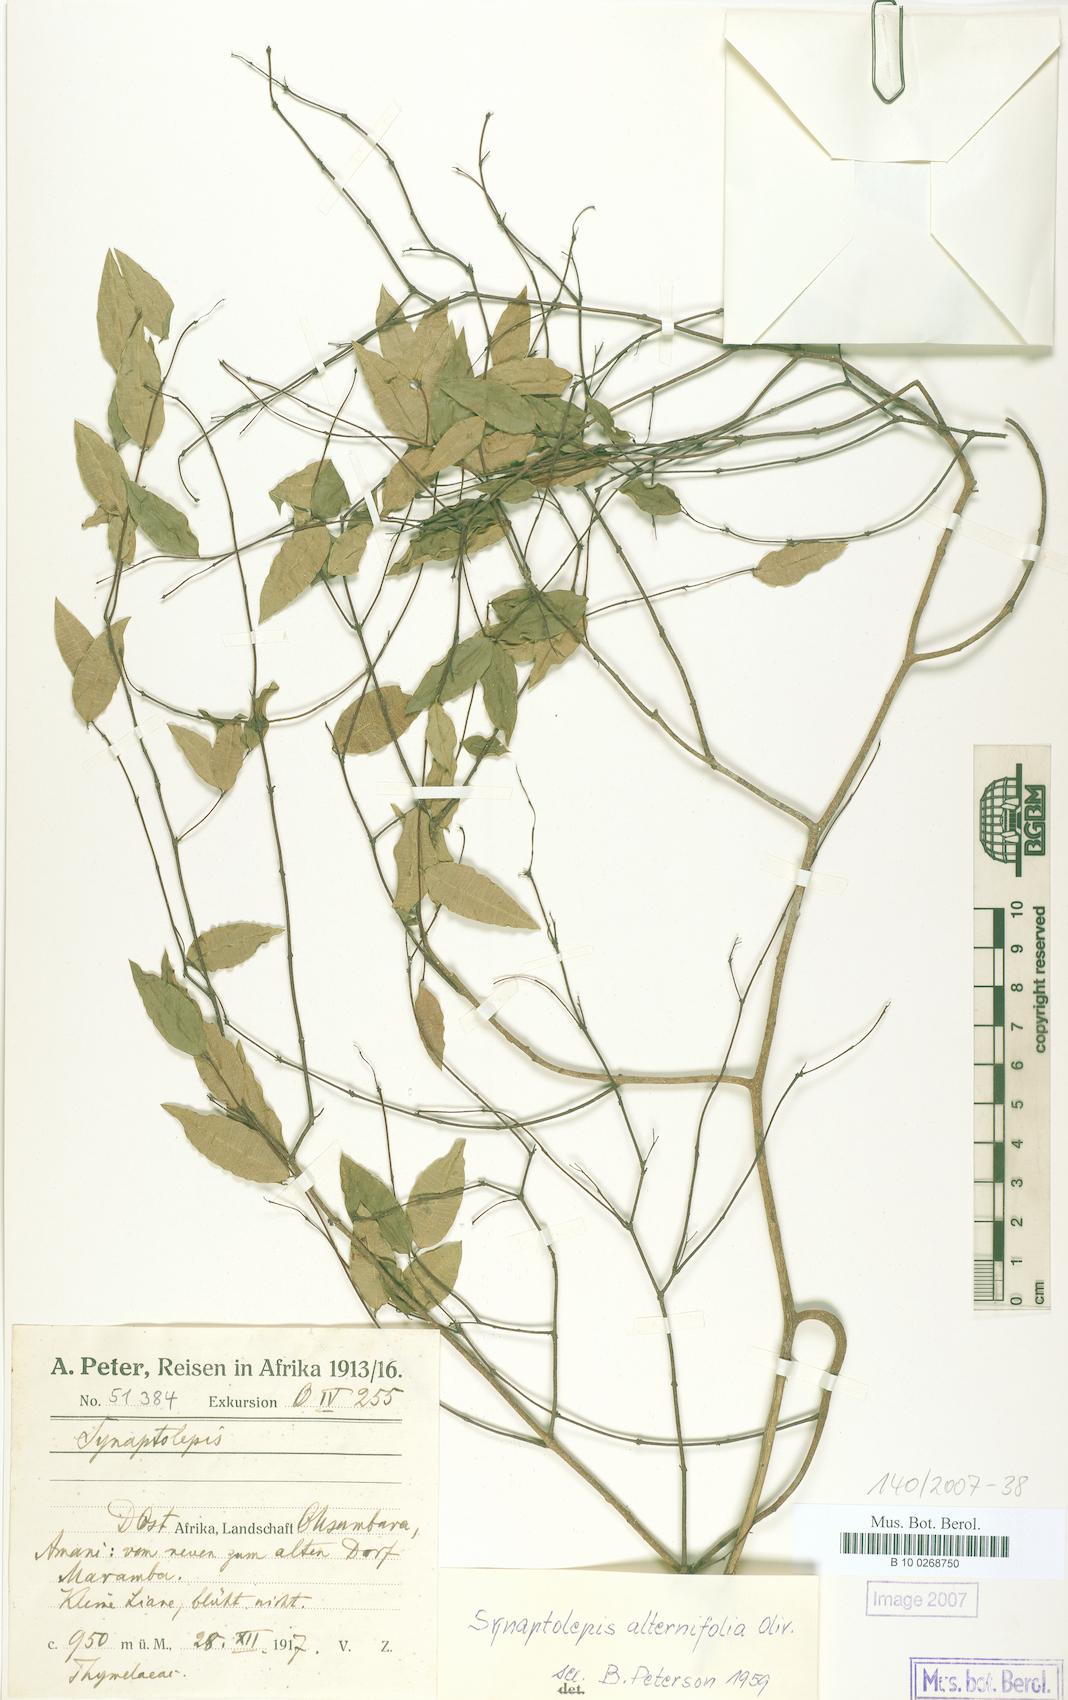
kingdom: Plantae
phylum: Tracheophyta
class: Magnoliopsida
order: Malvales
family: Thymelaeaceae
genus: Synaptolepis
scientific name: Synaptolepis alternifolia
